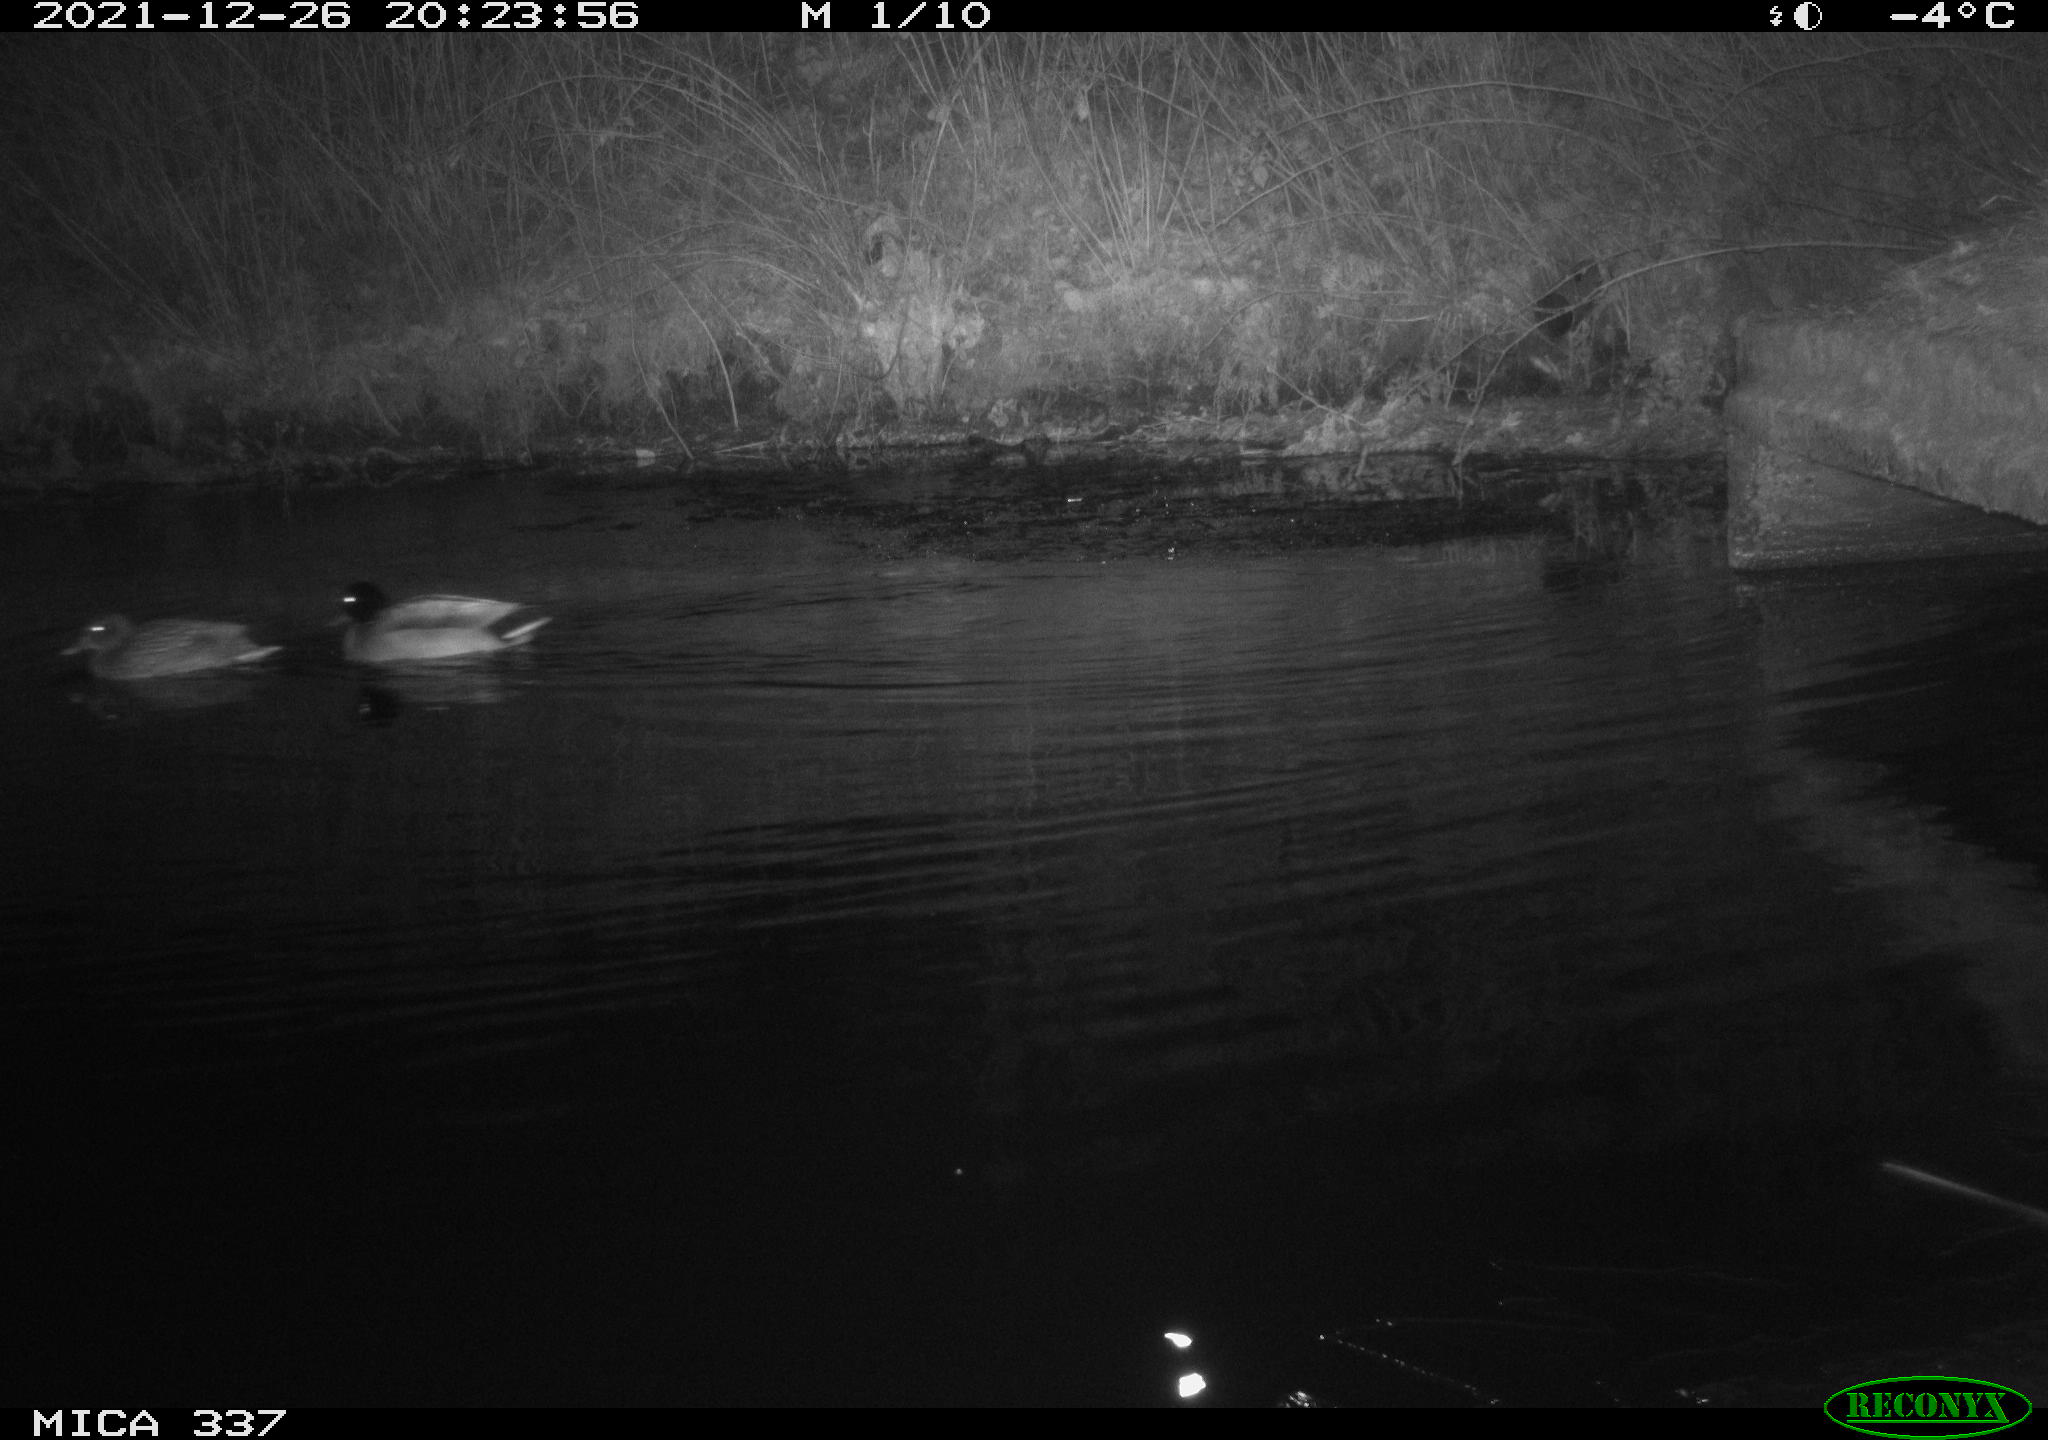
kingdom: Animalia
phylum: Chordata
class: Aves
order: Anseriformes
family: Anatidae
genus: Anas
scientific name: Anas platyrhynchos
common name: Mallard
